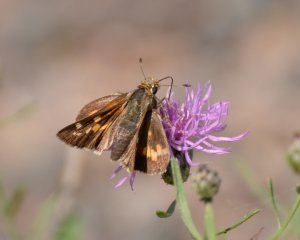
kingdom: Animalia
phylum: Arthropoda
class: Insecta
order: Lepidoptera
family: Hesperiidae
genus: Hesperia
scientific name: Hesperia leonardus
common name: Leonard's Skipper
